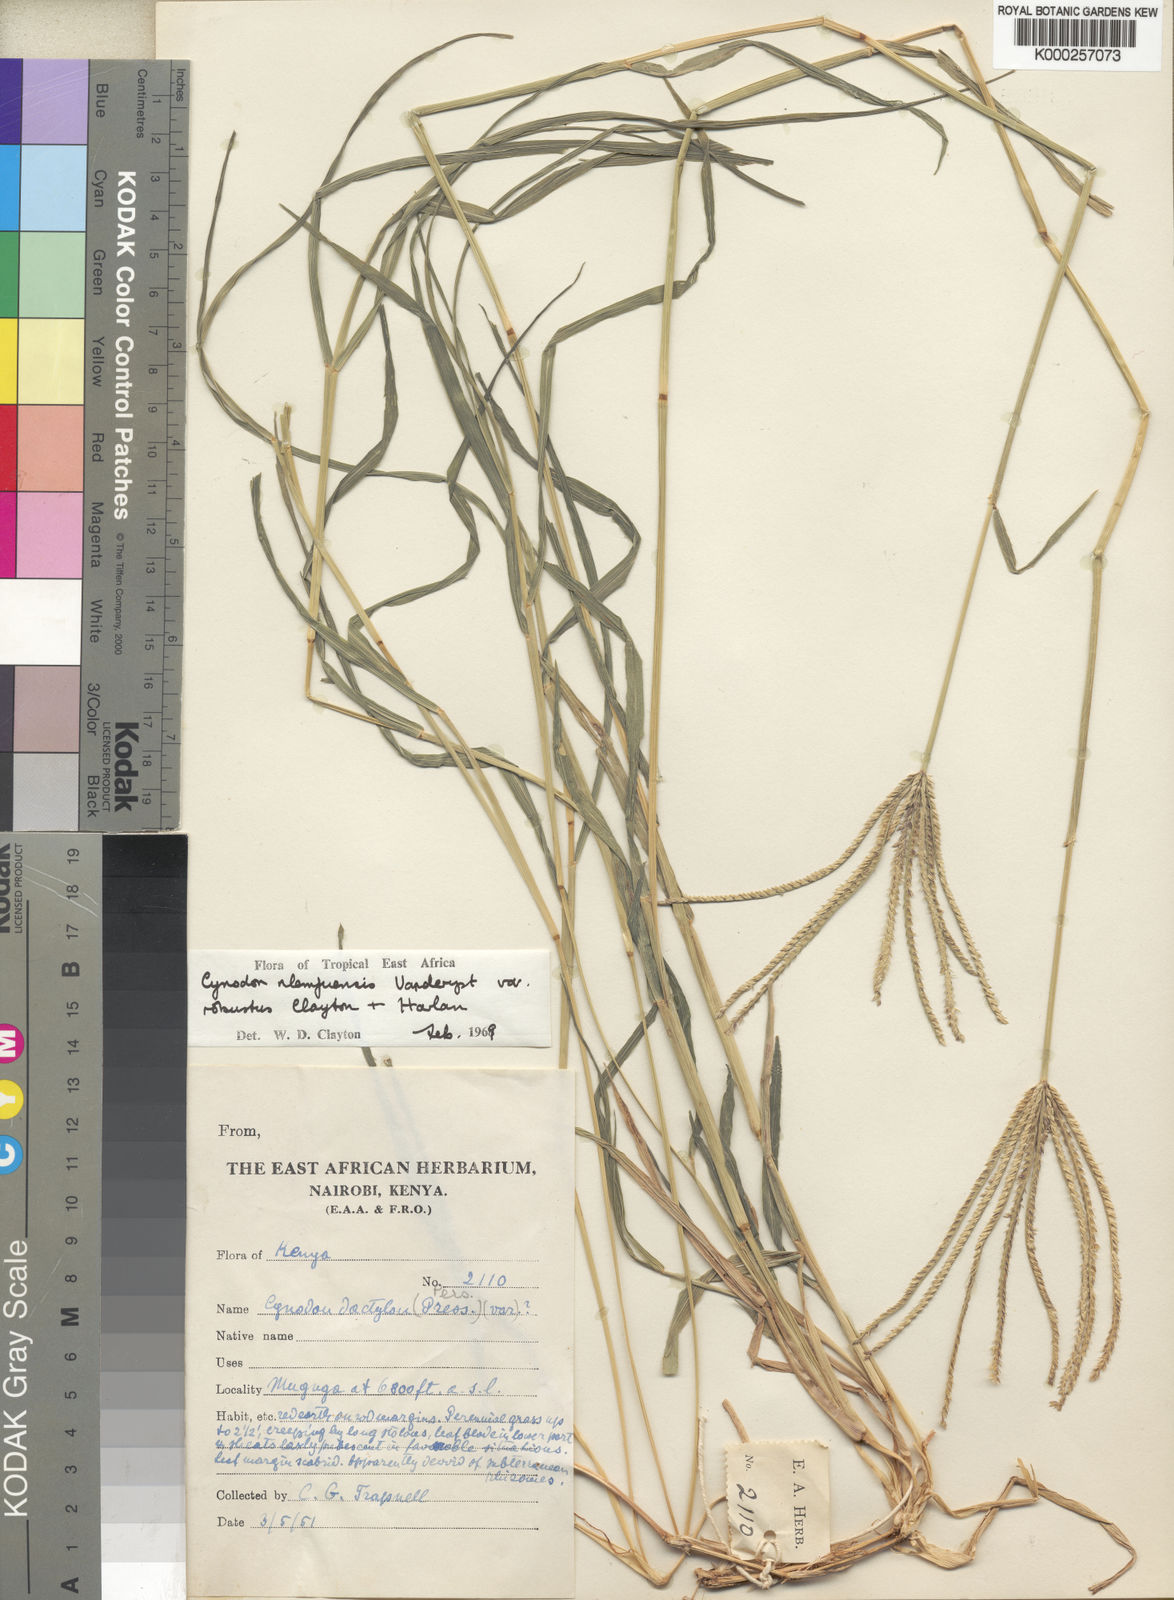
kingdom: Plantae
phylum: Tracheophyta
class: Liliopsida
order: Poales
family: Poaceae
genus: Cynodon
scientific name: Cynodon nlemfuensis
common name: African bermudagrass
